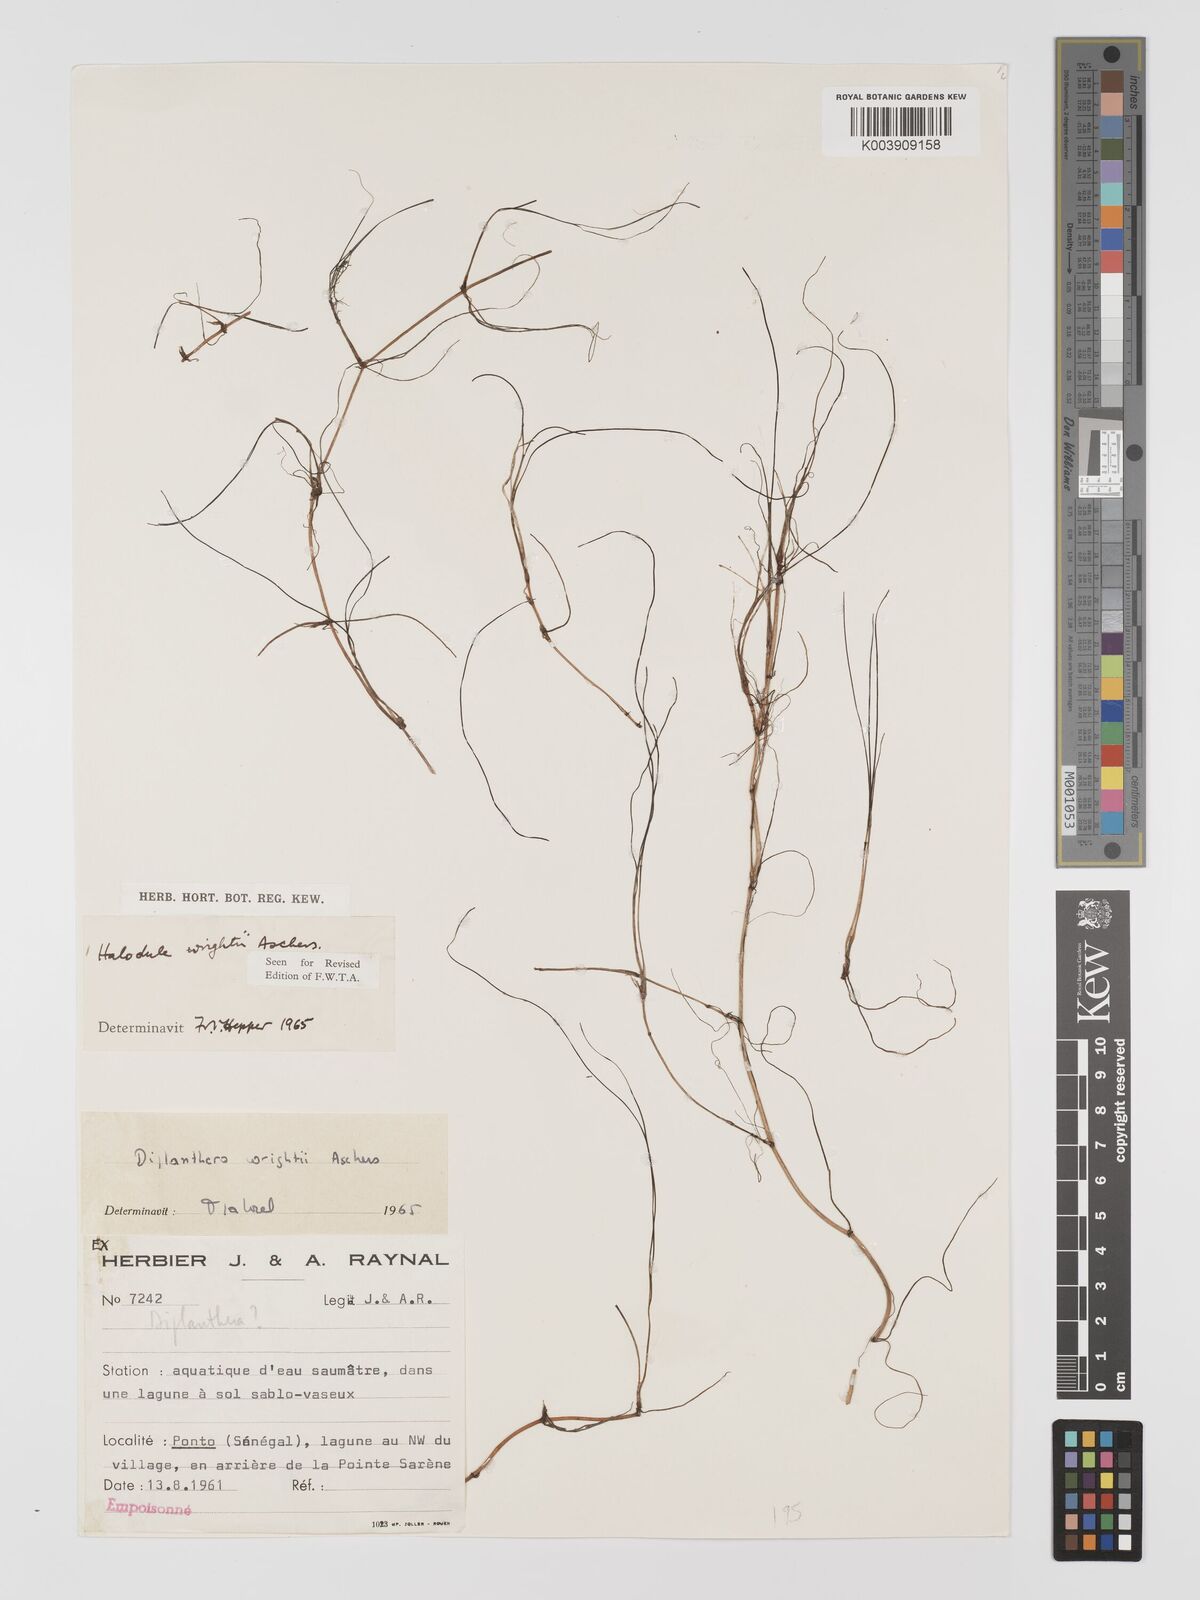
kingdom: Plantae
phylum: Tracheophyta
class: Liliopsida
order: Alismatales
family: Cymodoceaceae
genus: Halodule
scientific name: Halodule wrightii
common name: Shoalgrass
